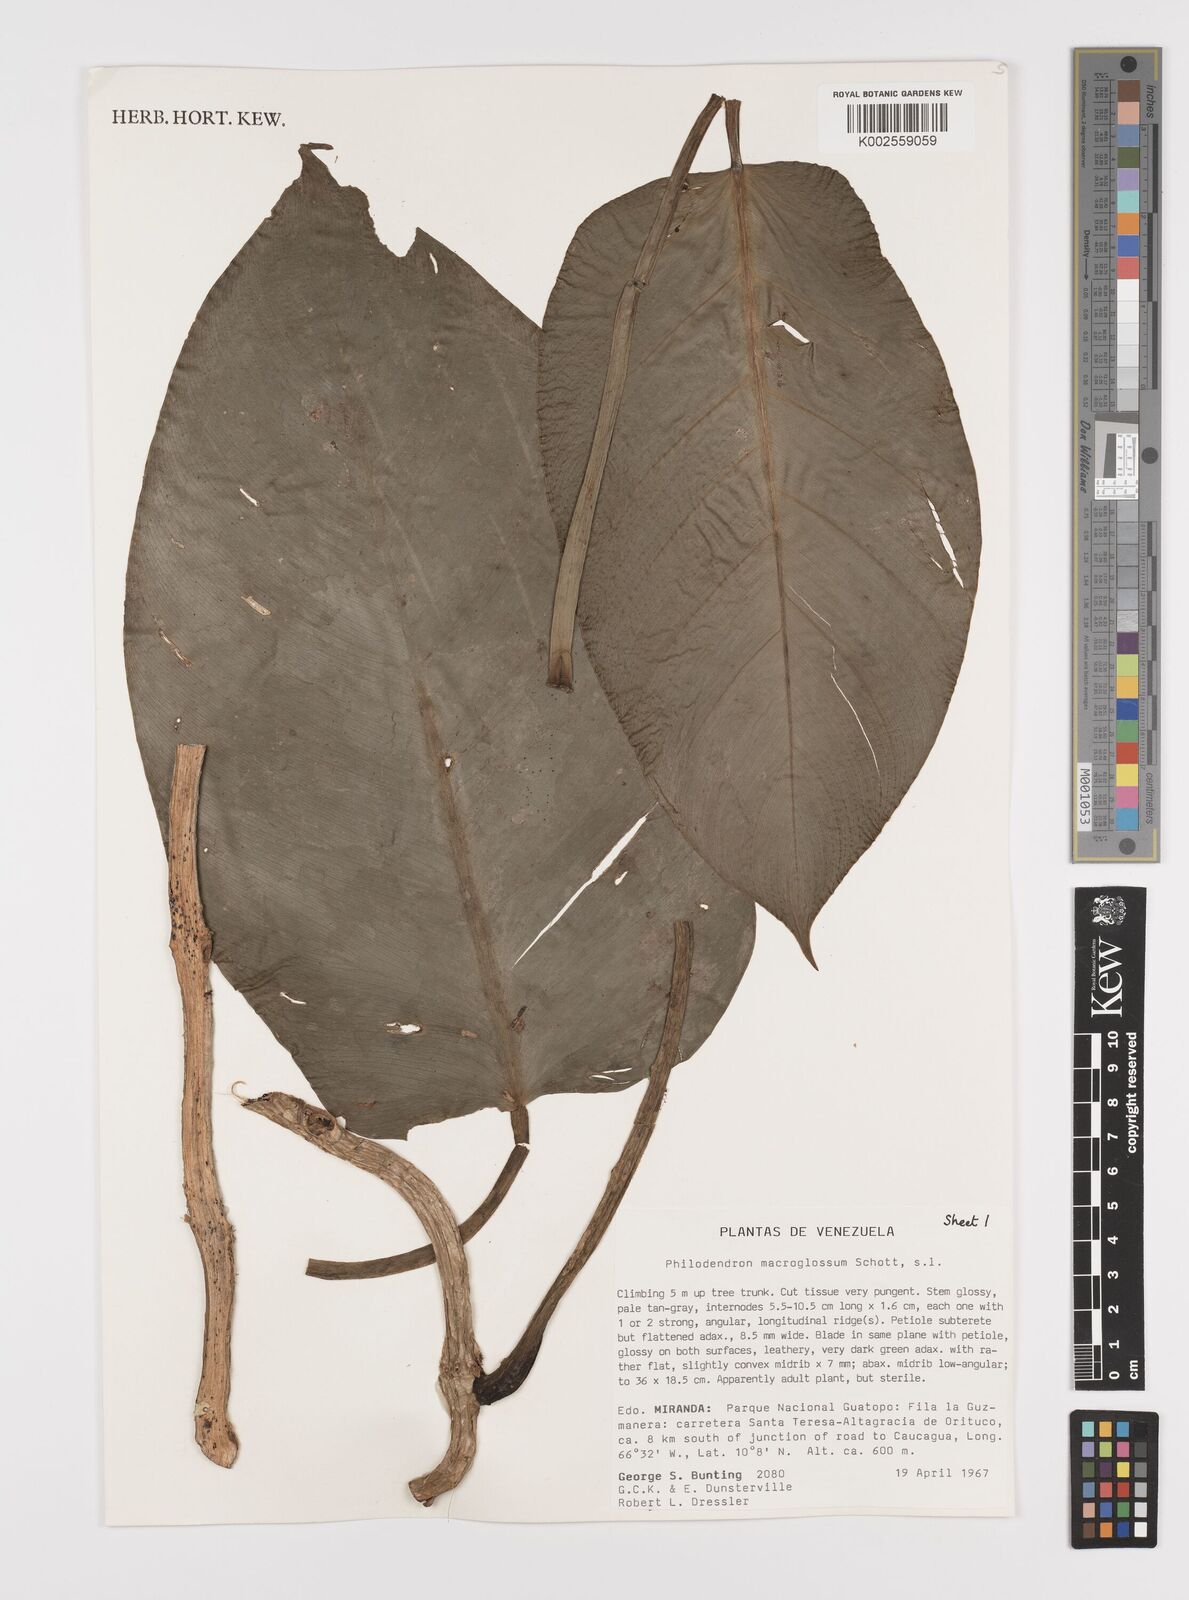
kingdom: Plantae
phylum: Tracheophyta
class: Liliopsida
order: Alismatales
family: Araceae
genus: Philodendron
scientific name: Philodendron macroglossum
